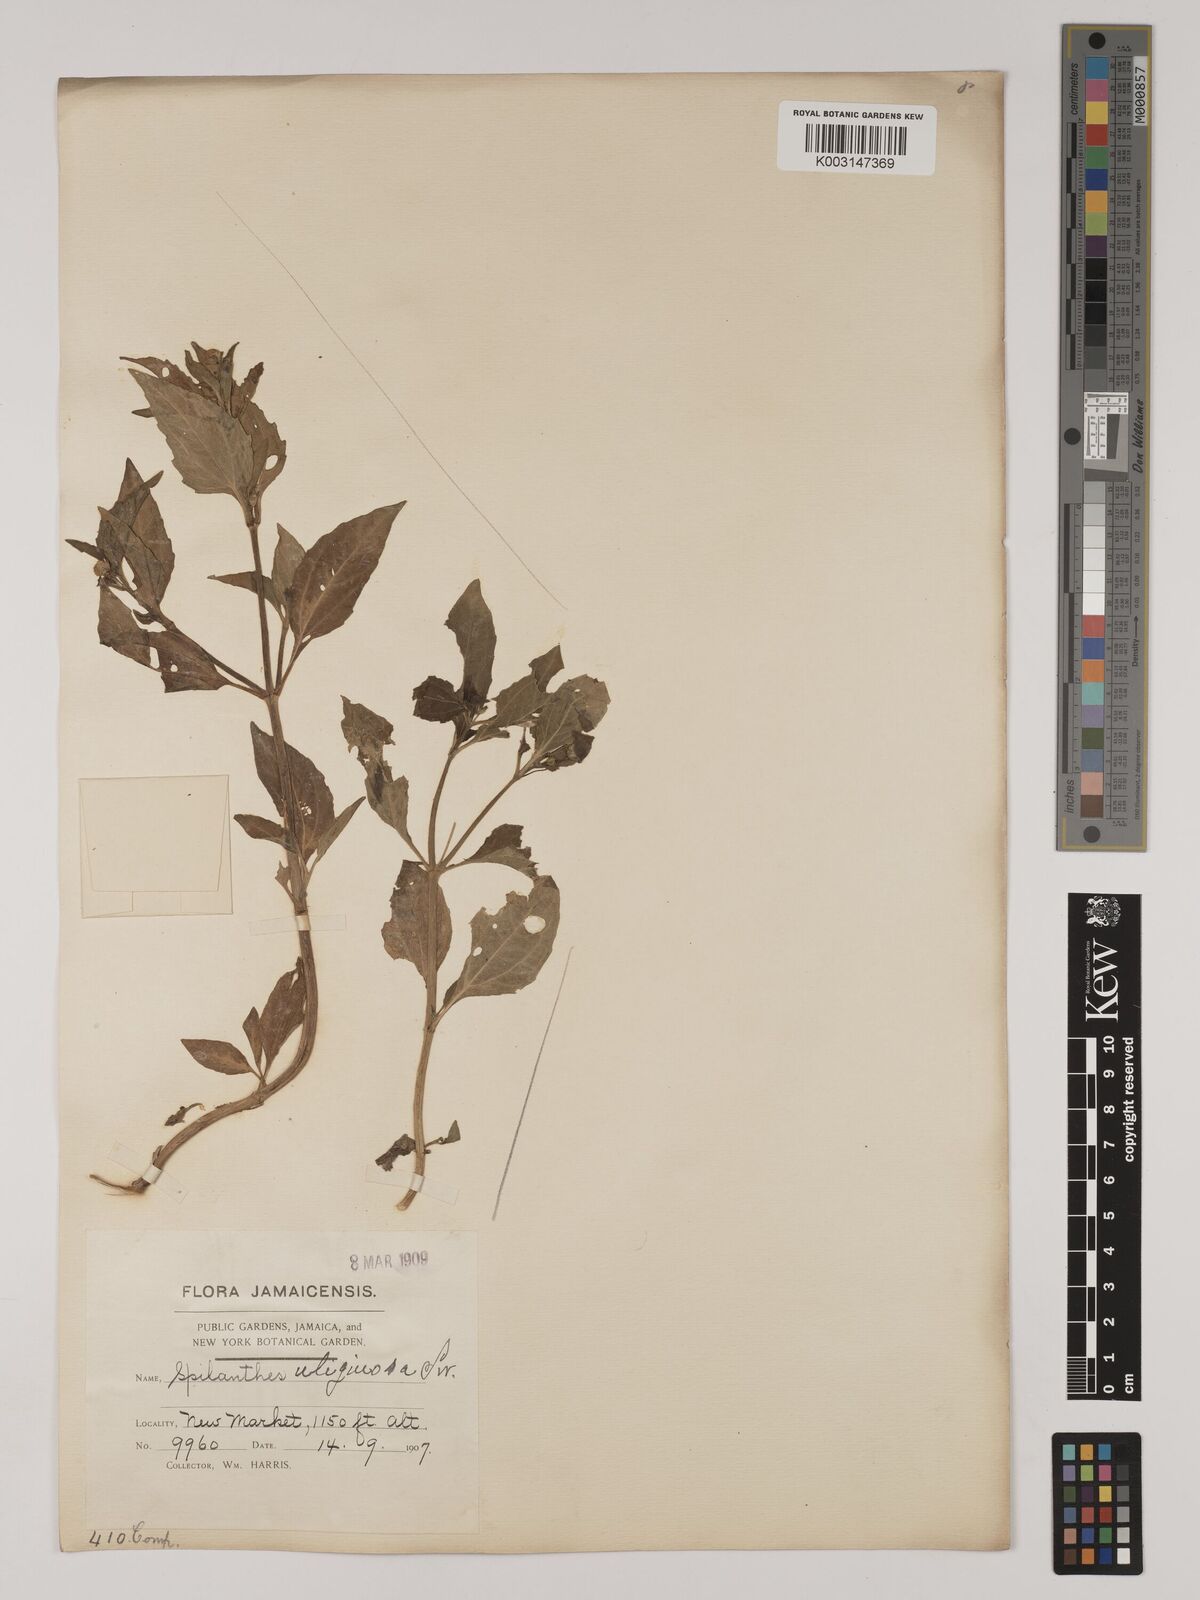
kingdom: Plantae
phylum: Tracheophyta
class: Magnoliopsida
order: Asterales
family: Asteraceae
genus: Acmella
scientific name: Acmella uliginosa
